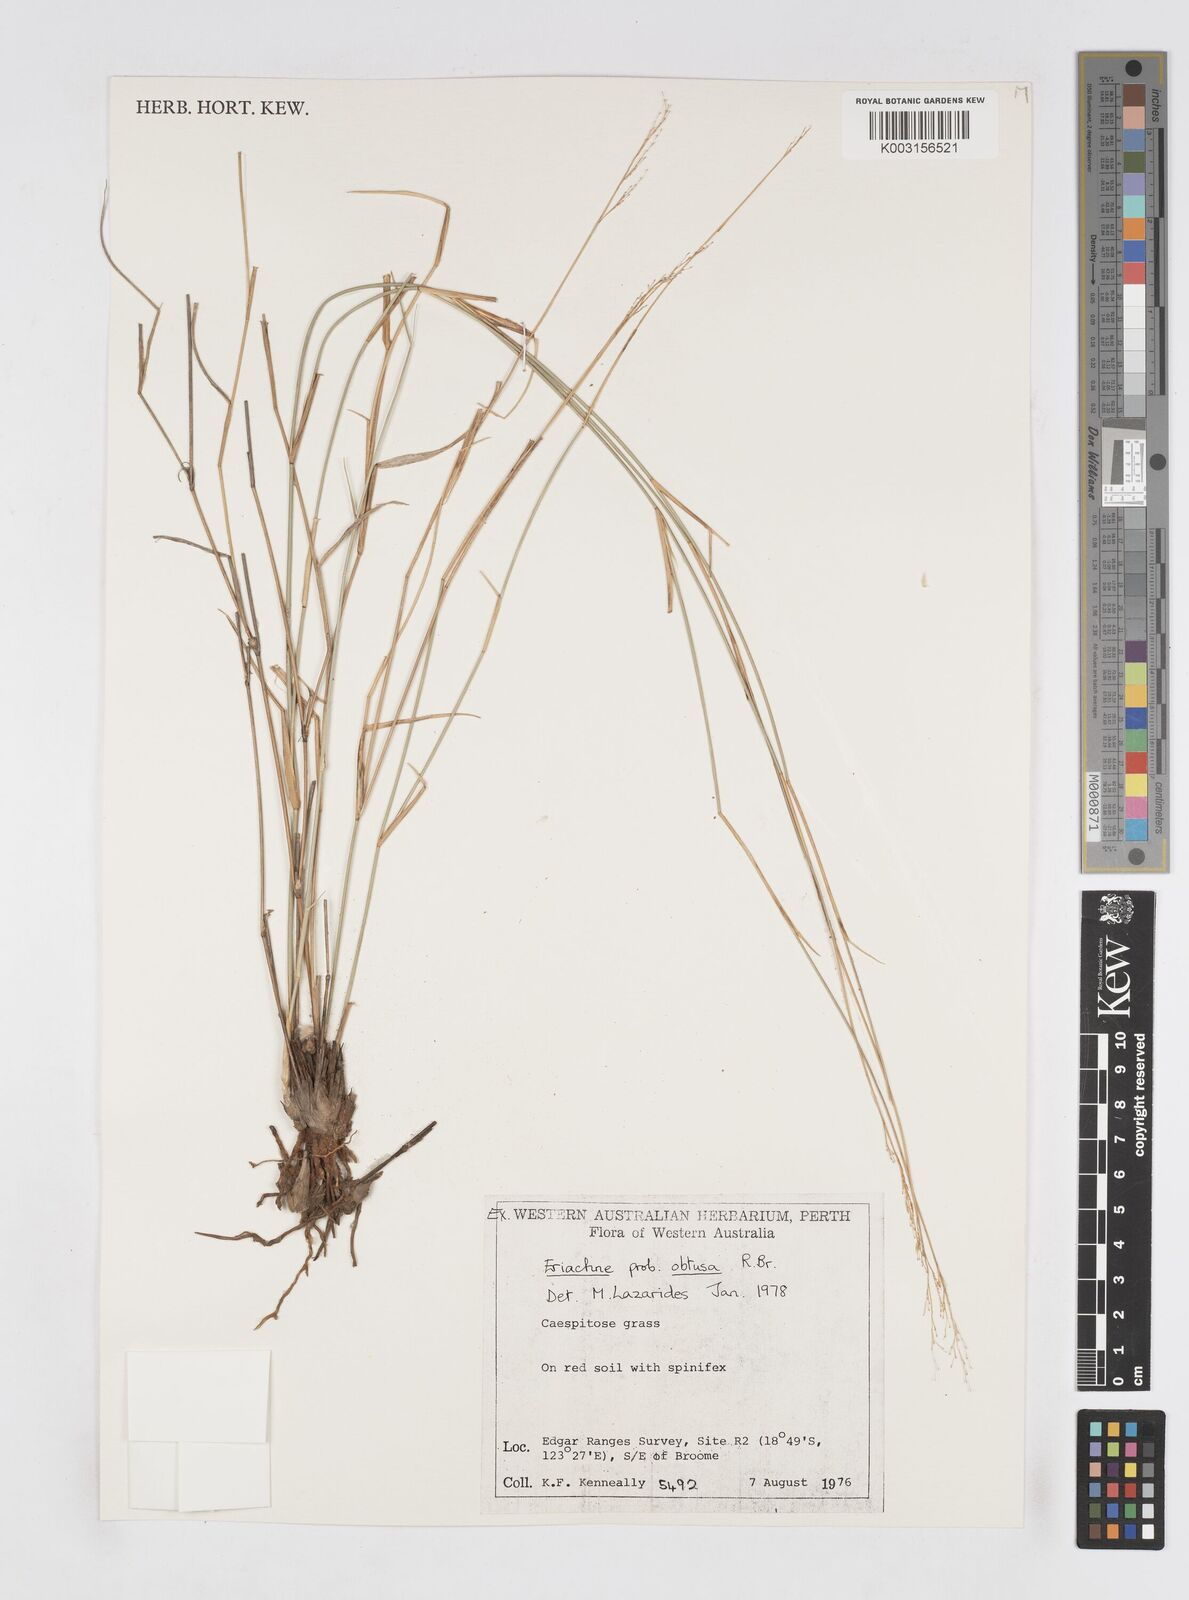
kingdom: Plantae
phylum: Tracheophyta
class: Liliopsida
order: Poales
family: Poaceae
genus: Eriachne
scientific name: Eriachne obtusa
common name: Northern wanderrie grass
